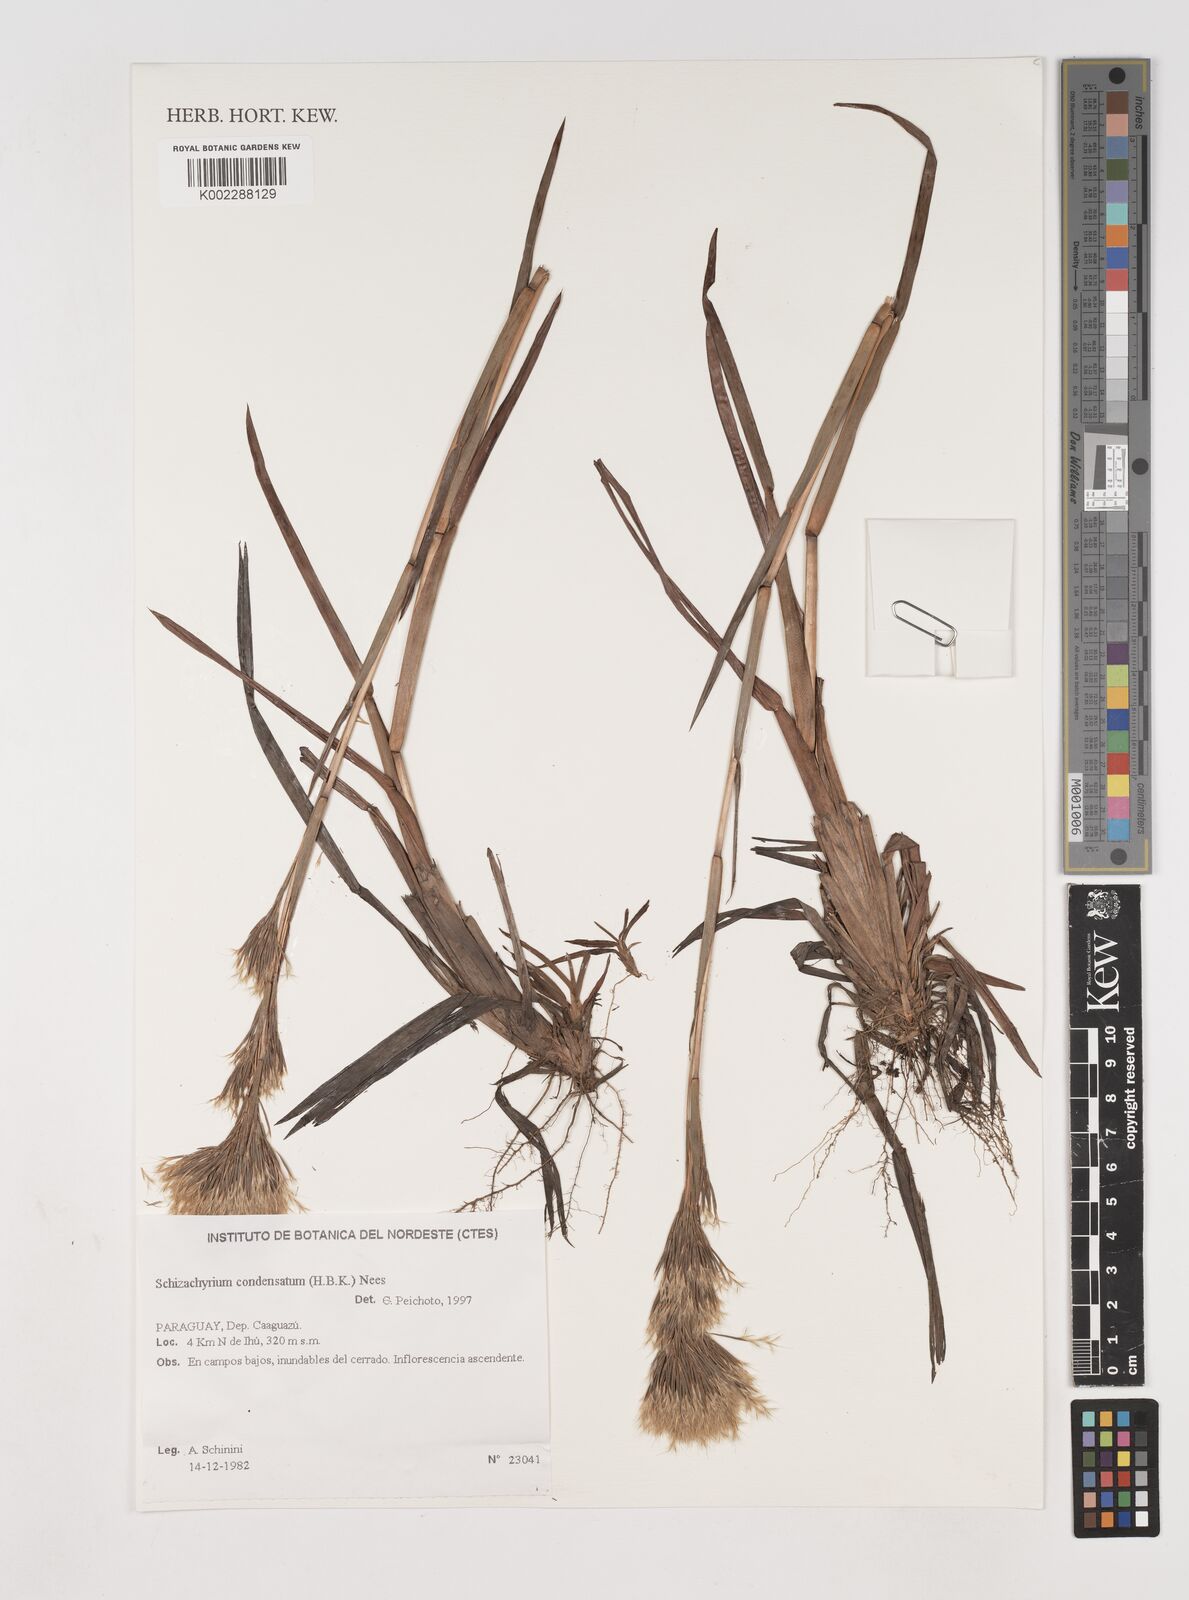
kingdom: Plantae
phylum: Tracheophyta
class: Liliopsida
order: Poales
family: Poaceae
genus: Schizachyrium
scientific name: Schizachyrium condensatum
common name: Bush beardgrass
